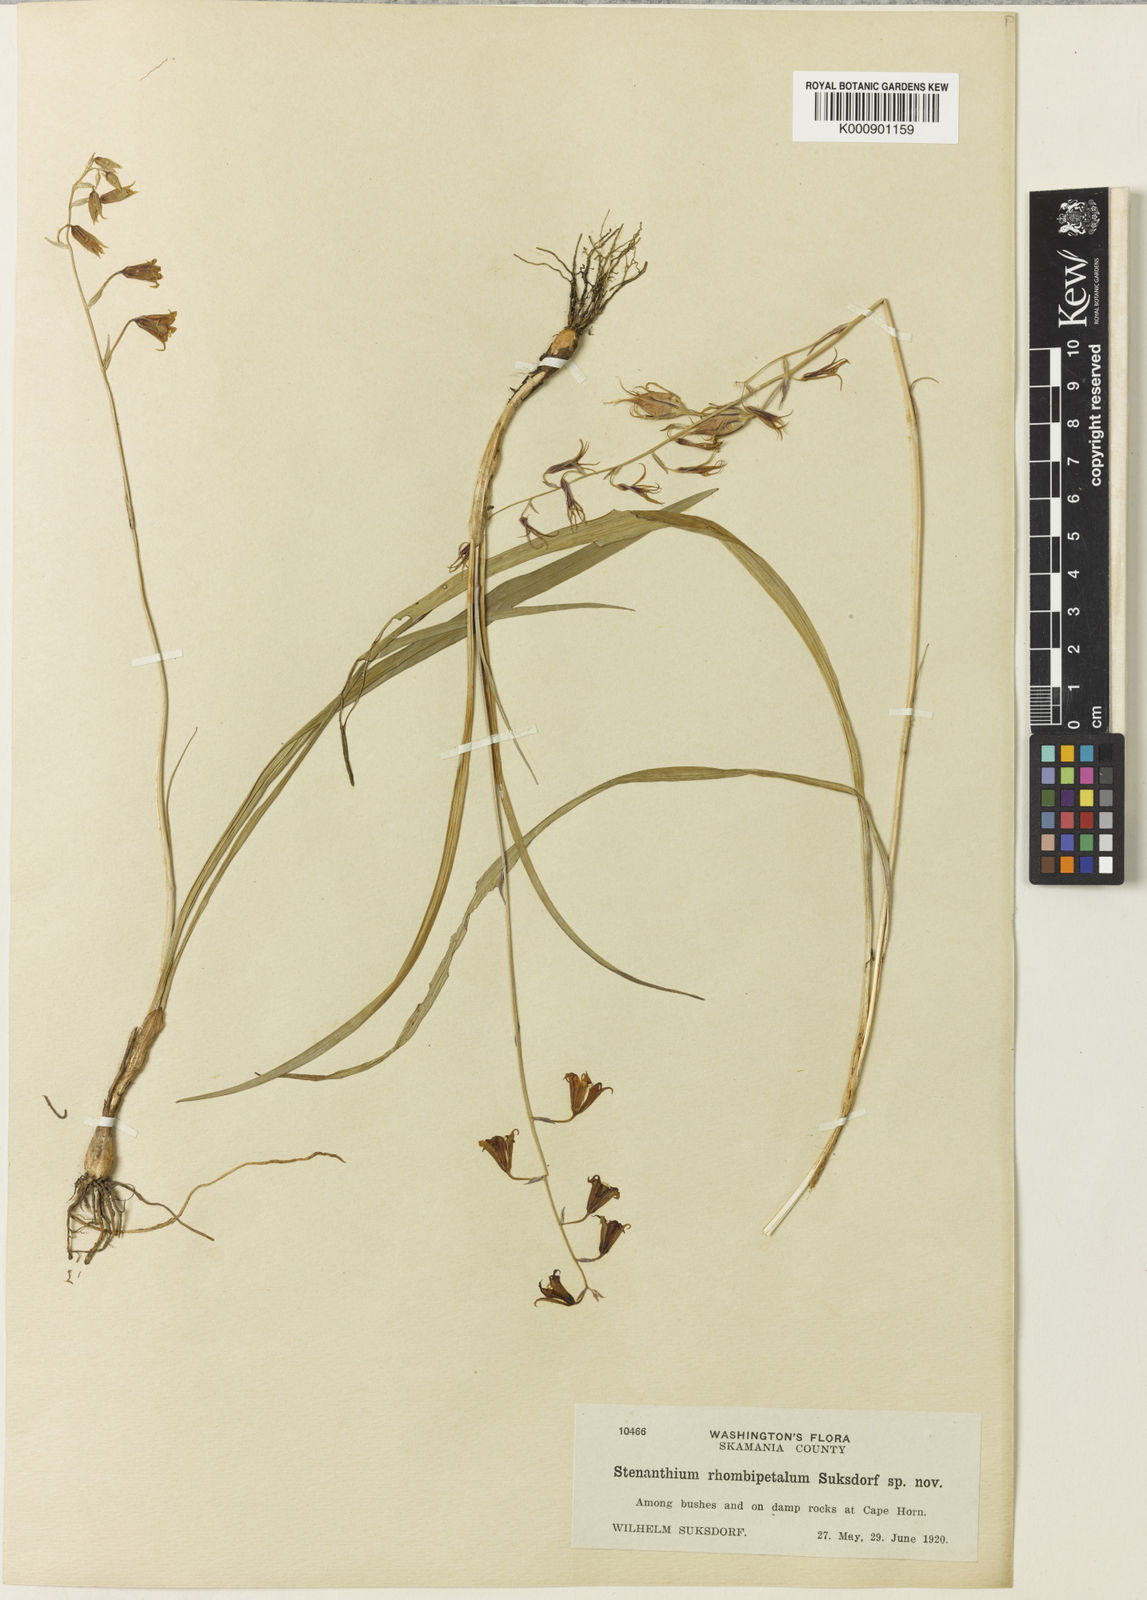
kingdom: Plantae
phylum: Tracheophyta
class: Liliopsida
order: Liliales
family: Melanthiaceae
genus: Anticlea
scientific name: Anticlea occidentalis
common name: Bronze-bells
